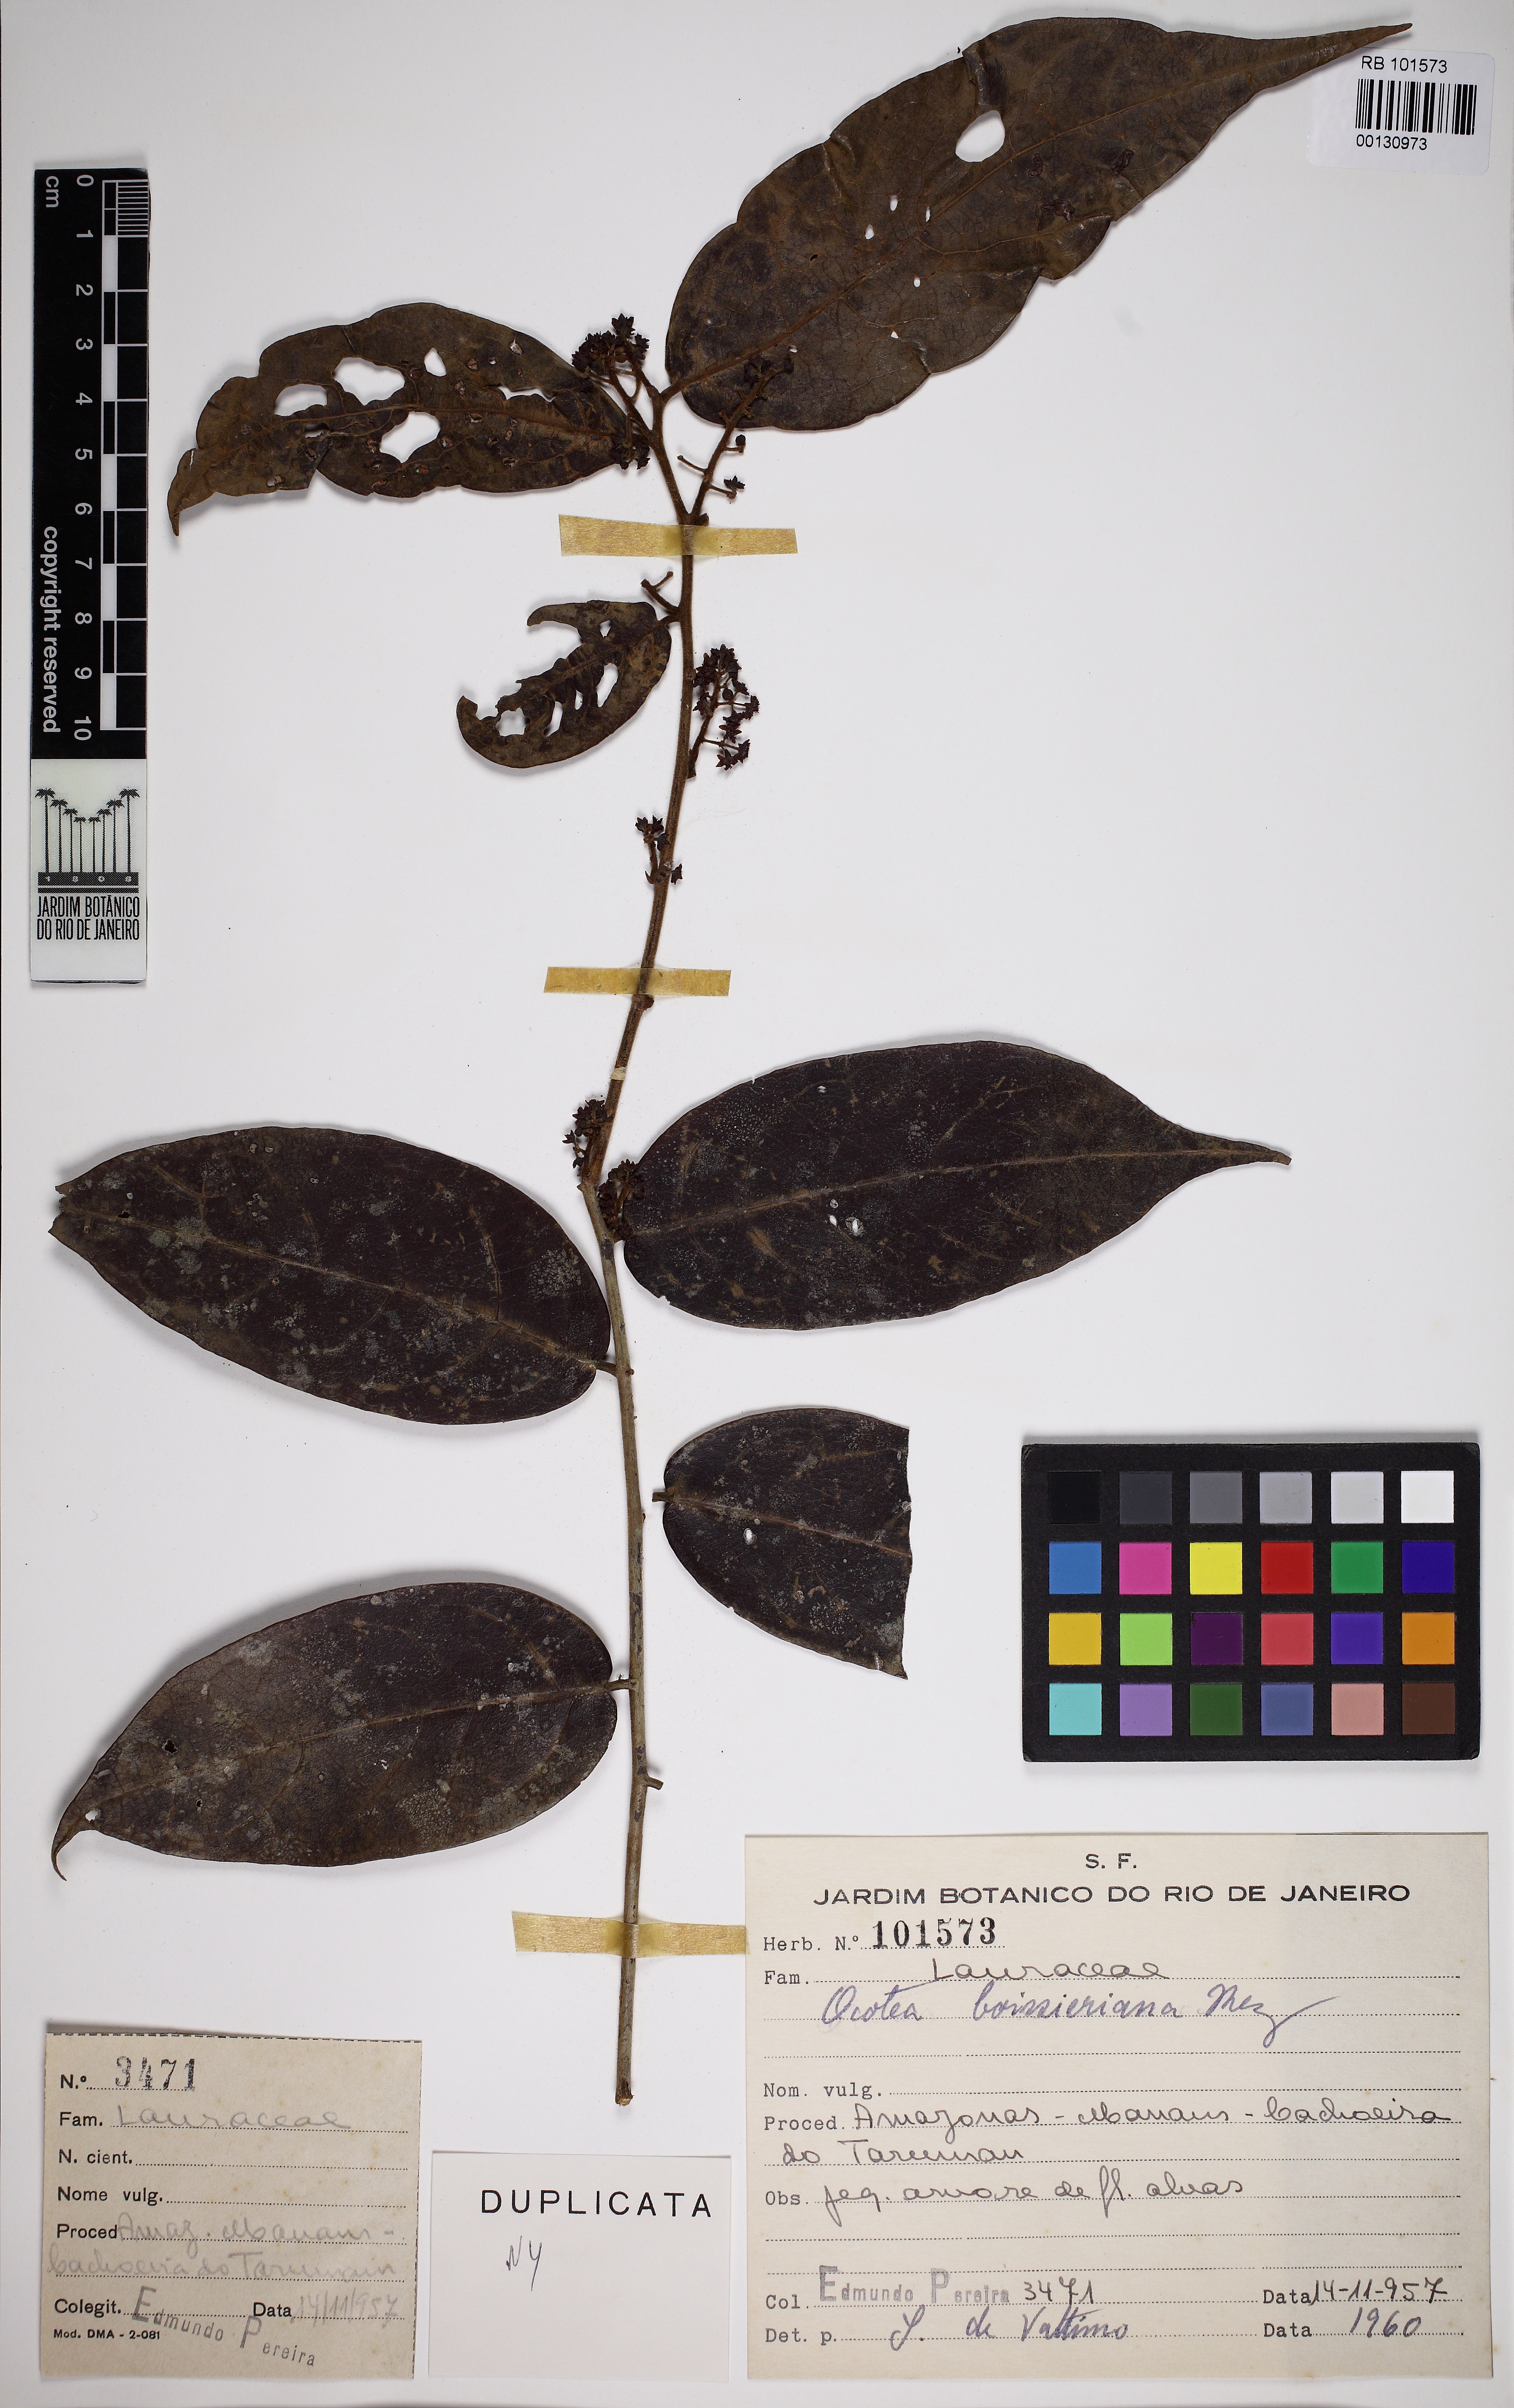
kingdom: Plantae
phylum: Tracheophyta
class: Magnoliopsida
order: Laurales
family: Lauraceae
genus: Ocotea
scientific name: Ocotea boissieriana
